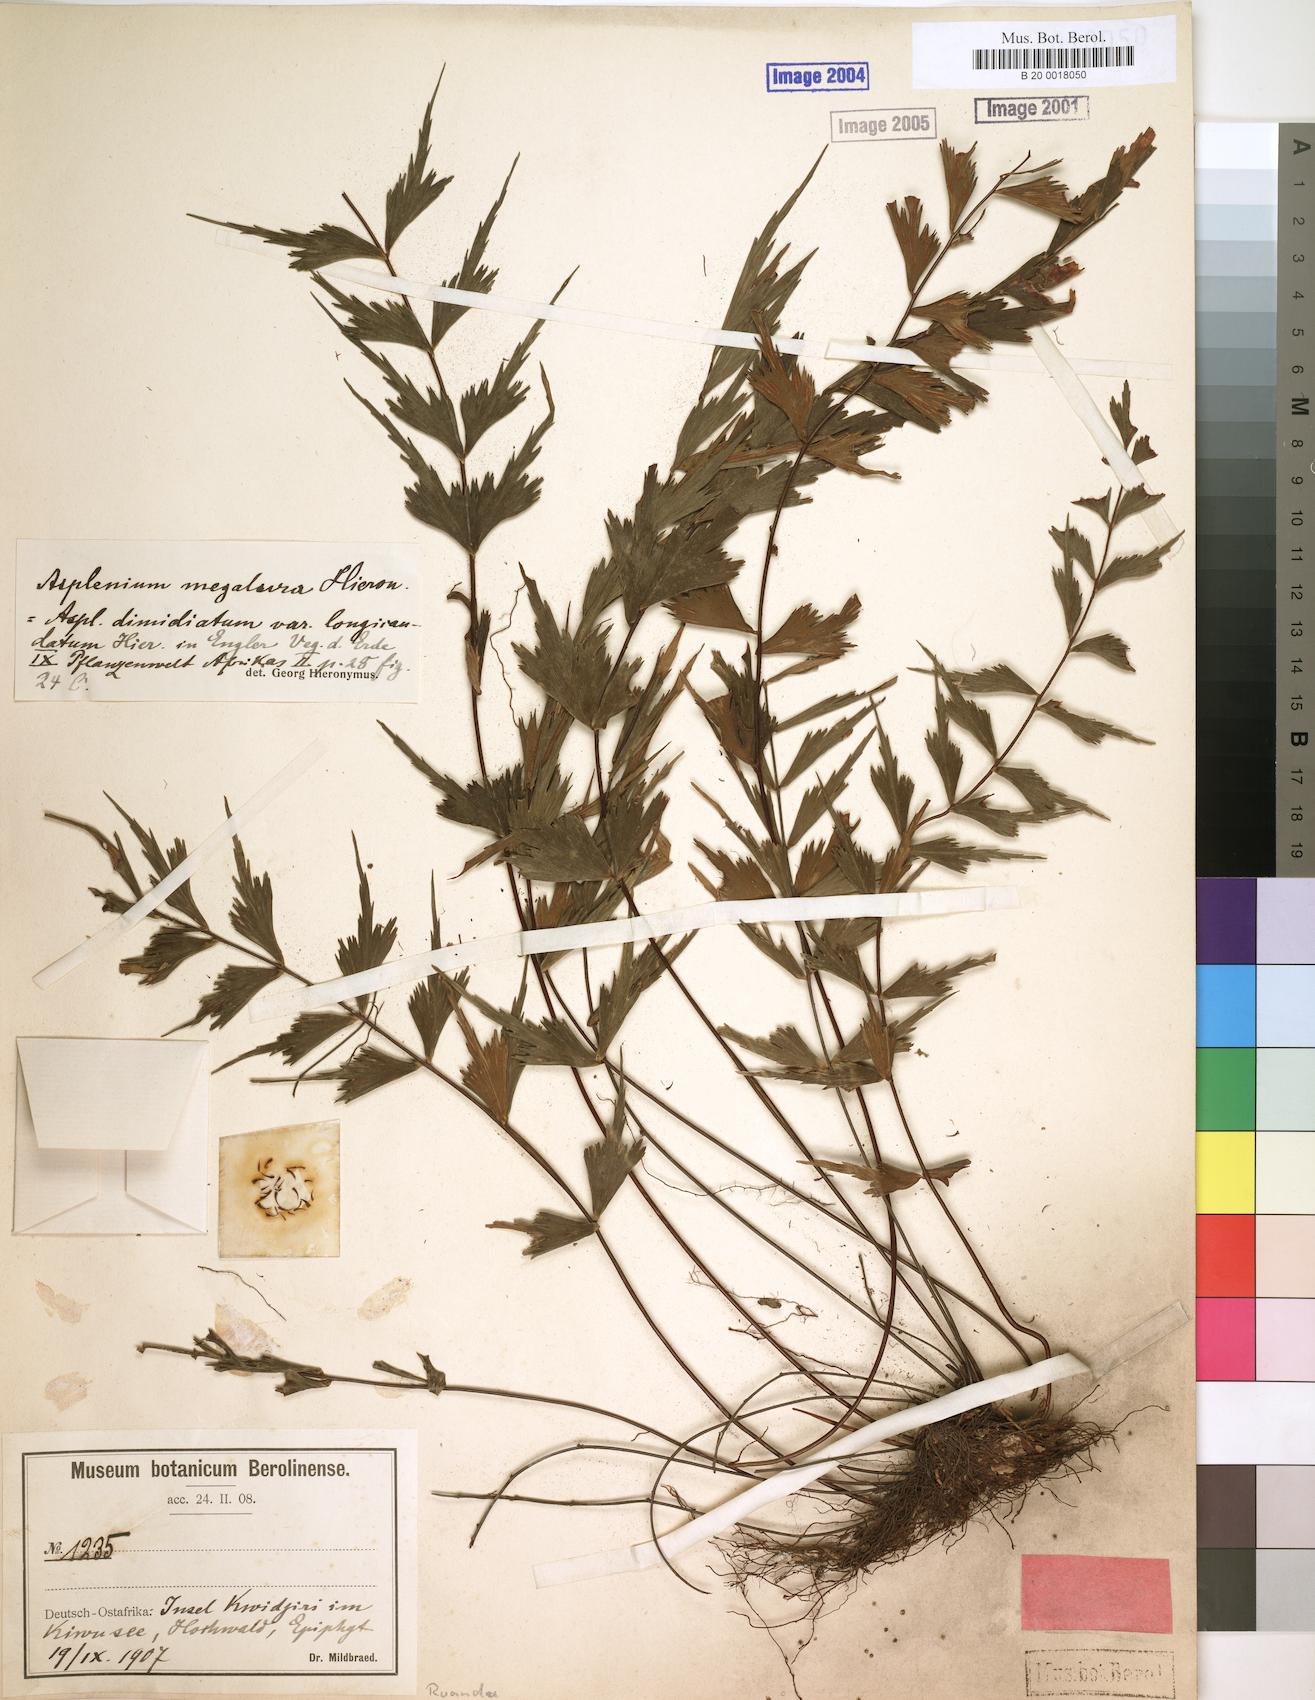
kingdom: Plantae
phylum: Tracheophyta
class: Polypodiopsida
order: Polypodiales
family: Aspleniaceae
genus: Asplenium
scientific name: Asplenium megalura
